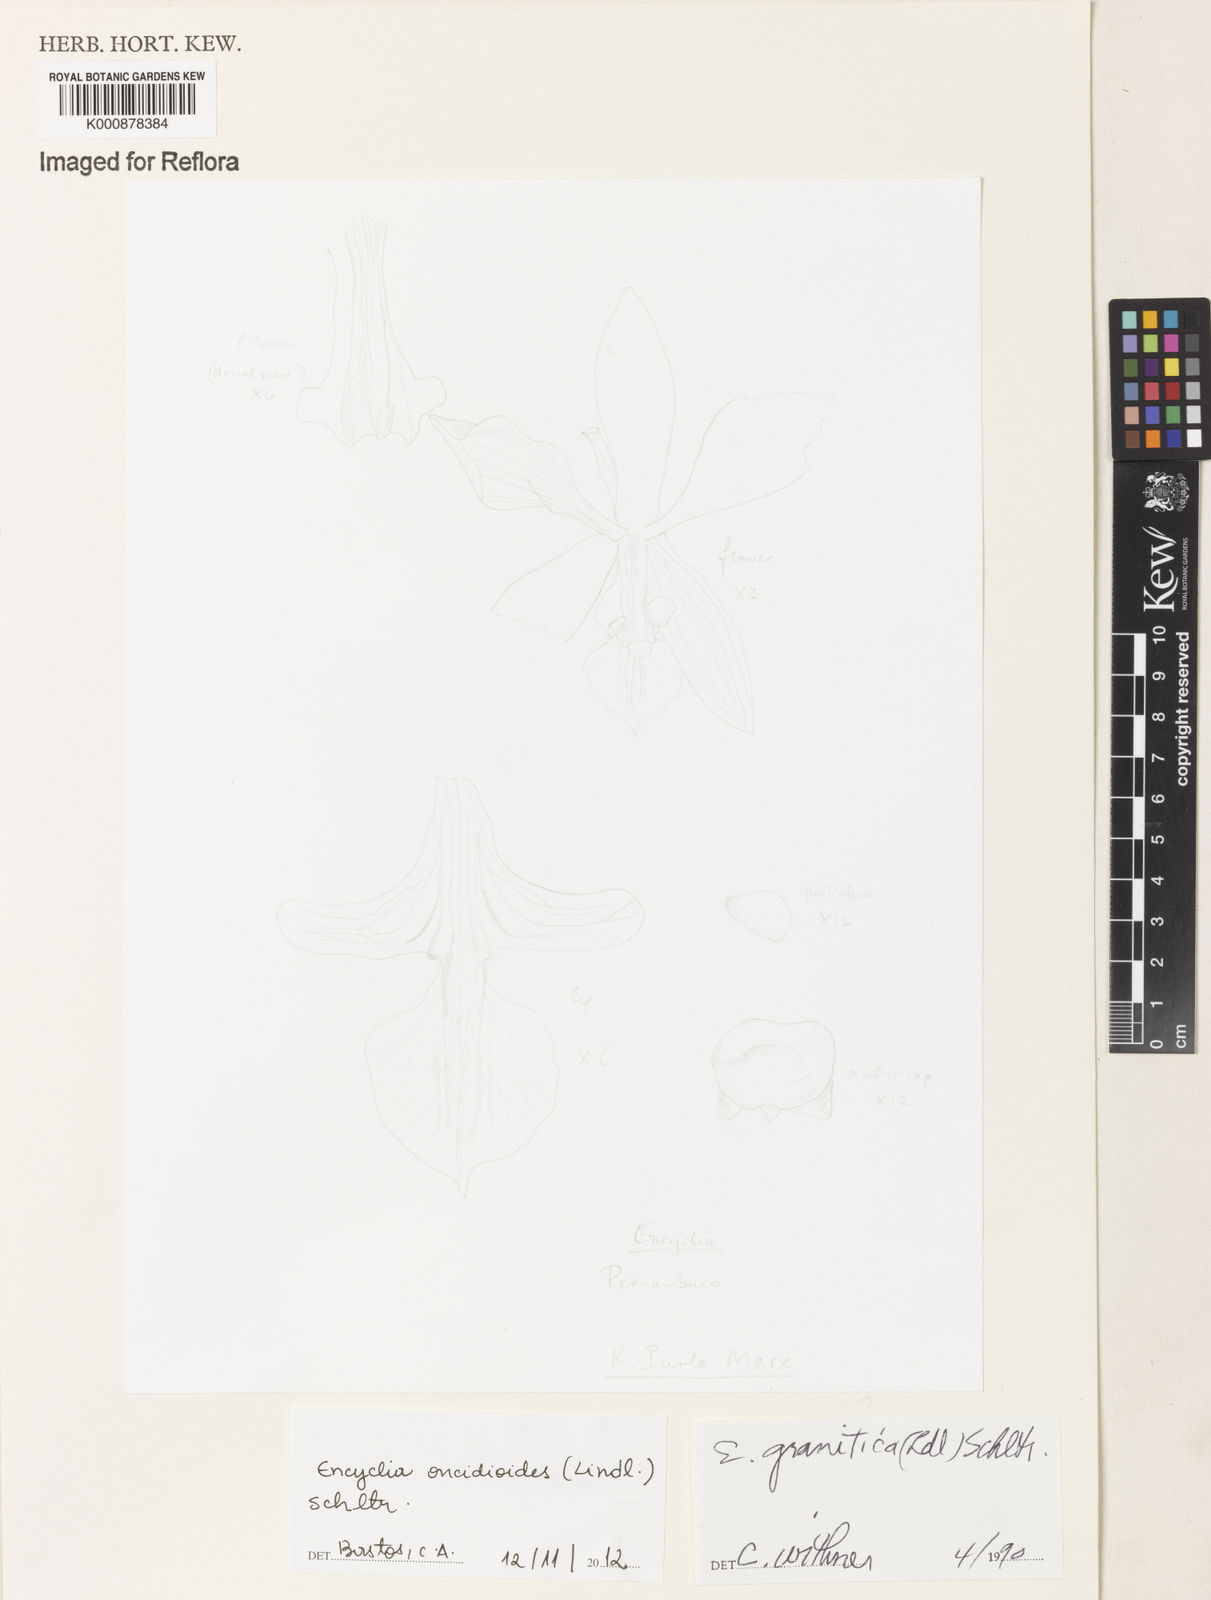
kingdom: Plantae
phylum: Tracheophyta
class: Liliopsida
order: Asparagales
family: Orchidaceae
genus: Encyclia
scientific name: Encyclia oncidioides
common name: Heavyfruit butterfly orchid
